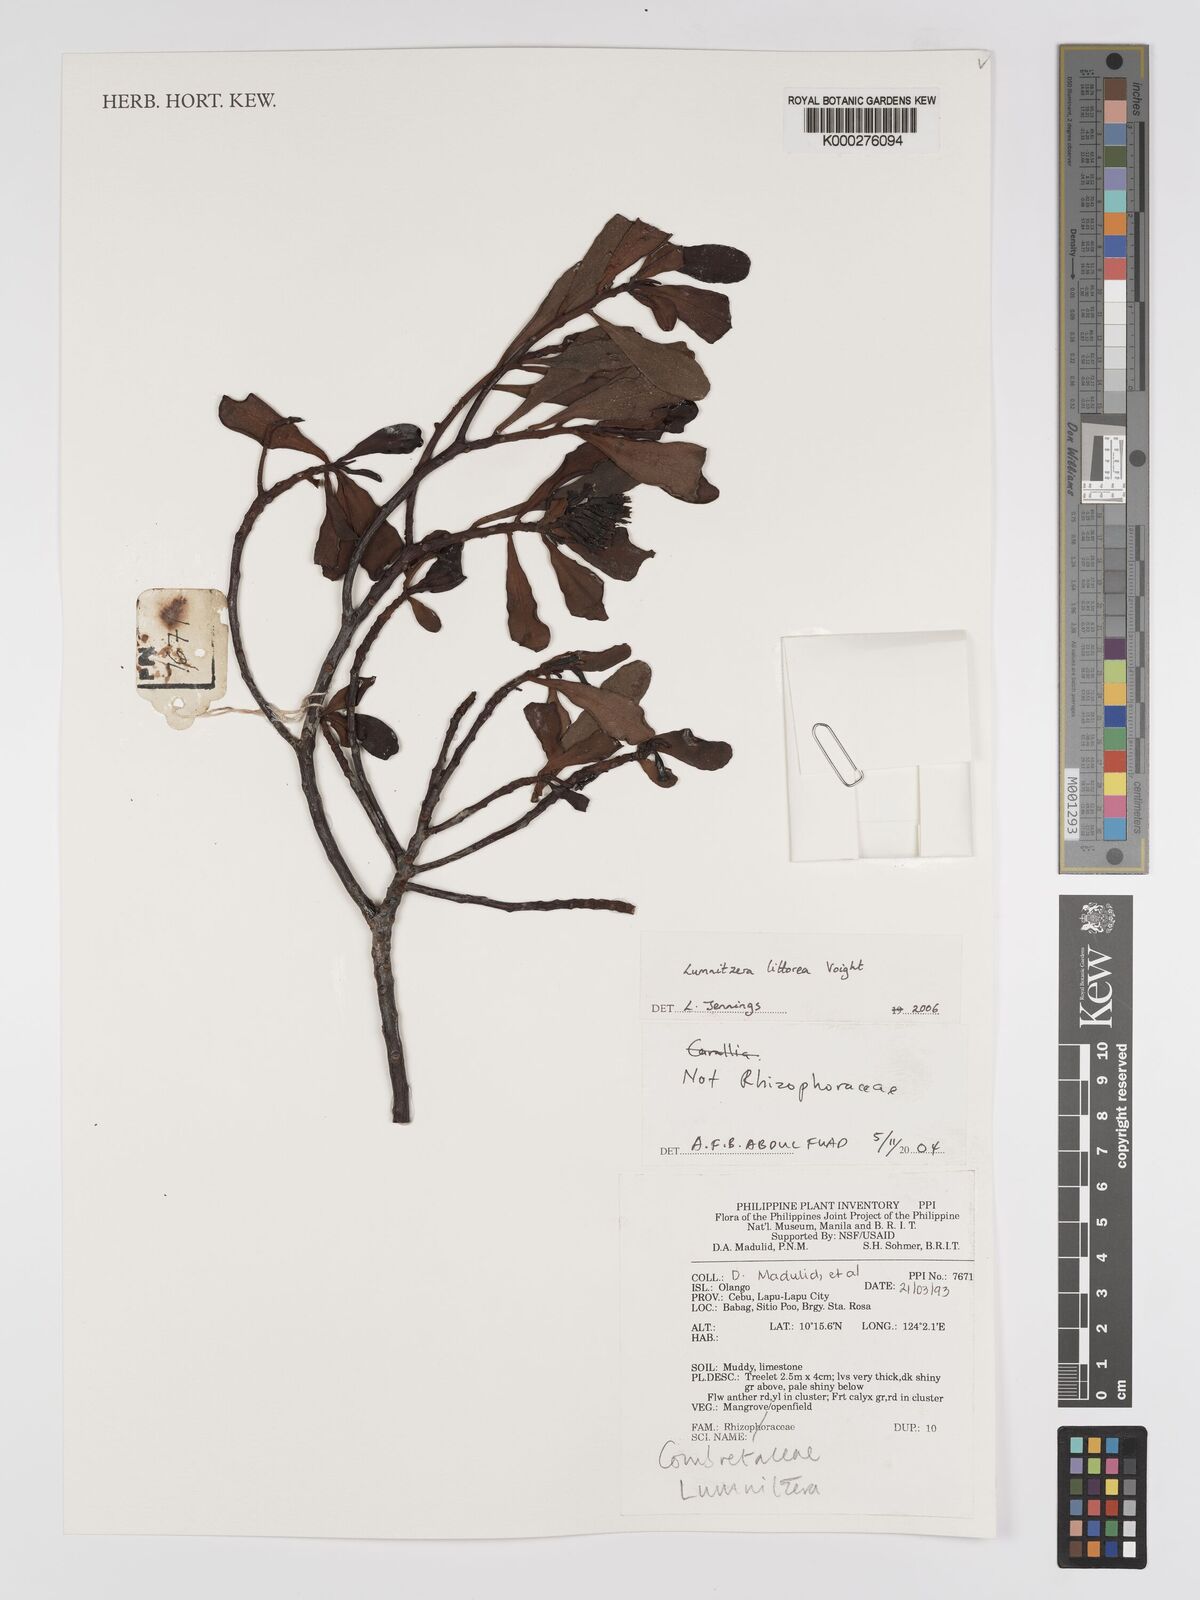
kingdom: Plantae
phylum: Tracheophyta
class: Magnoliopsida
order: Myrtales
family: Combretaceae
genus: Lumnitzera
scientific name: Lumnitzera littorea
